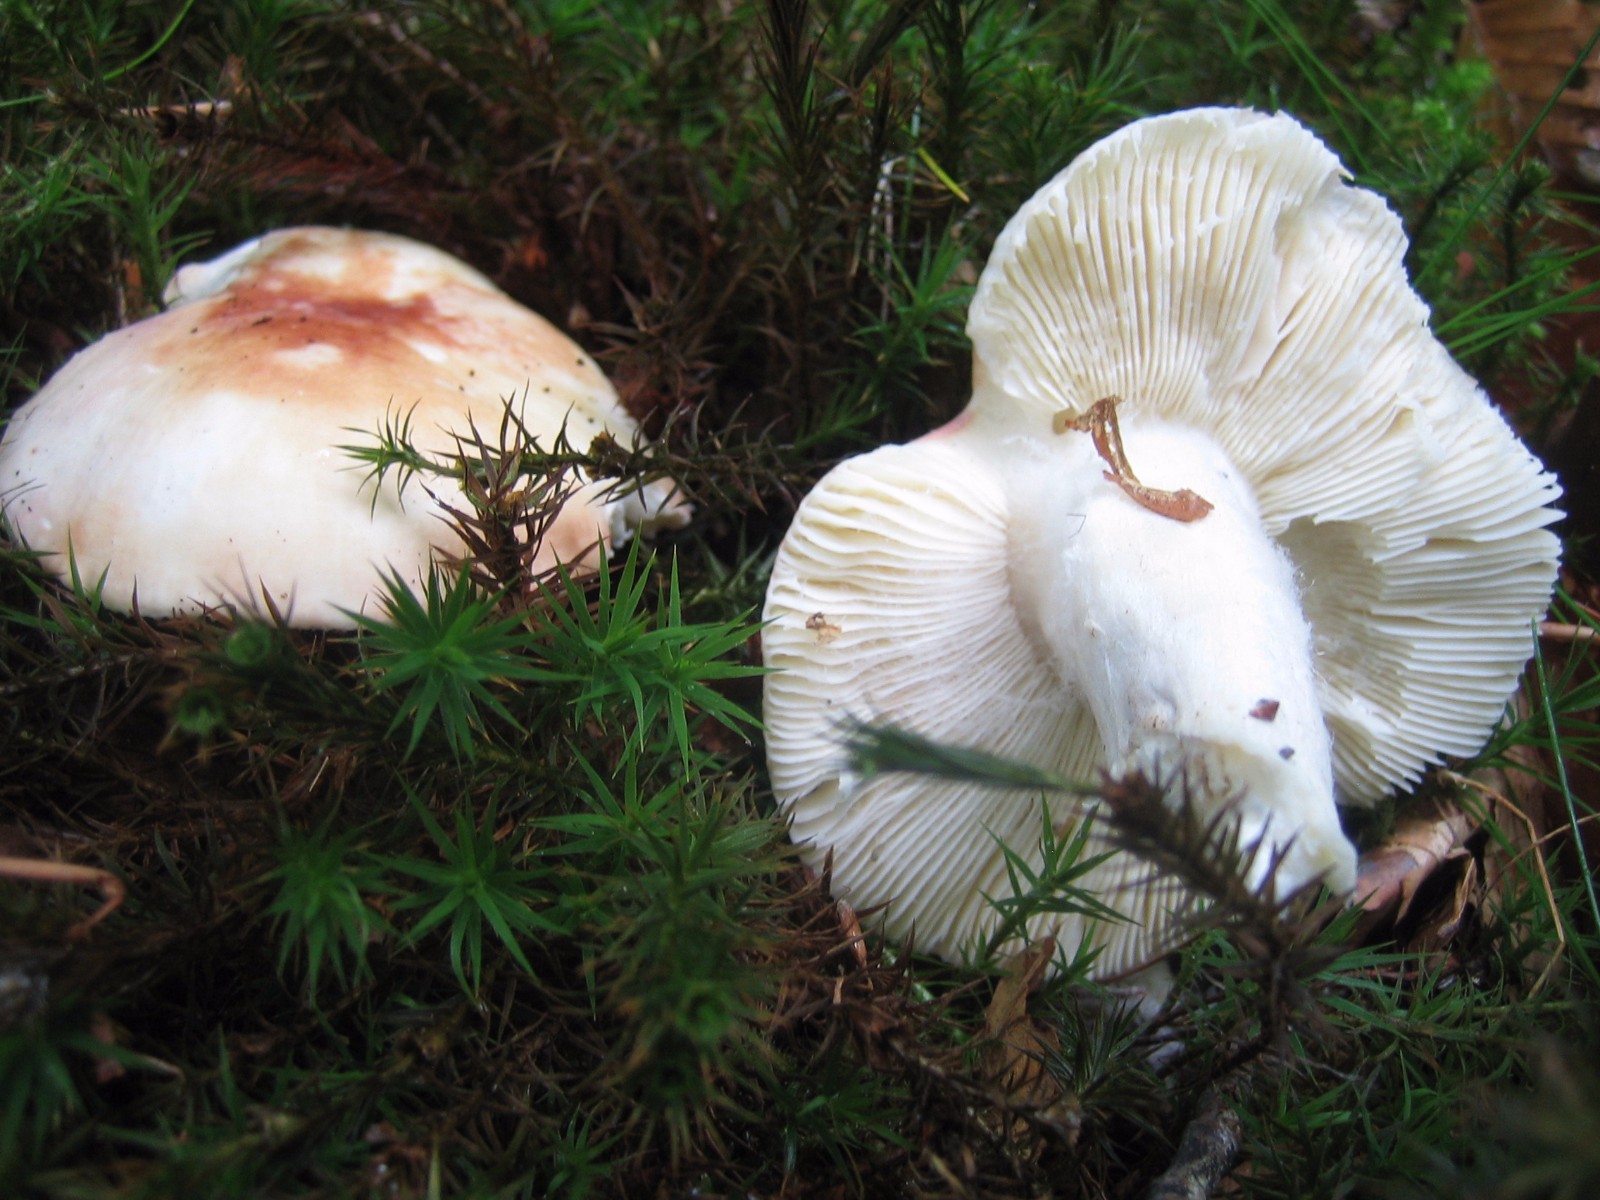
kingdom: Fungi
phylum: Basidiomycota
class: Agaricomycetes
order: Russulales
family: Russulaceae
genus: Russula
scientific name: Russula aurora
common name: rosa skørhat
